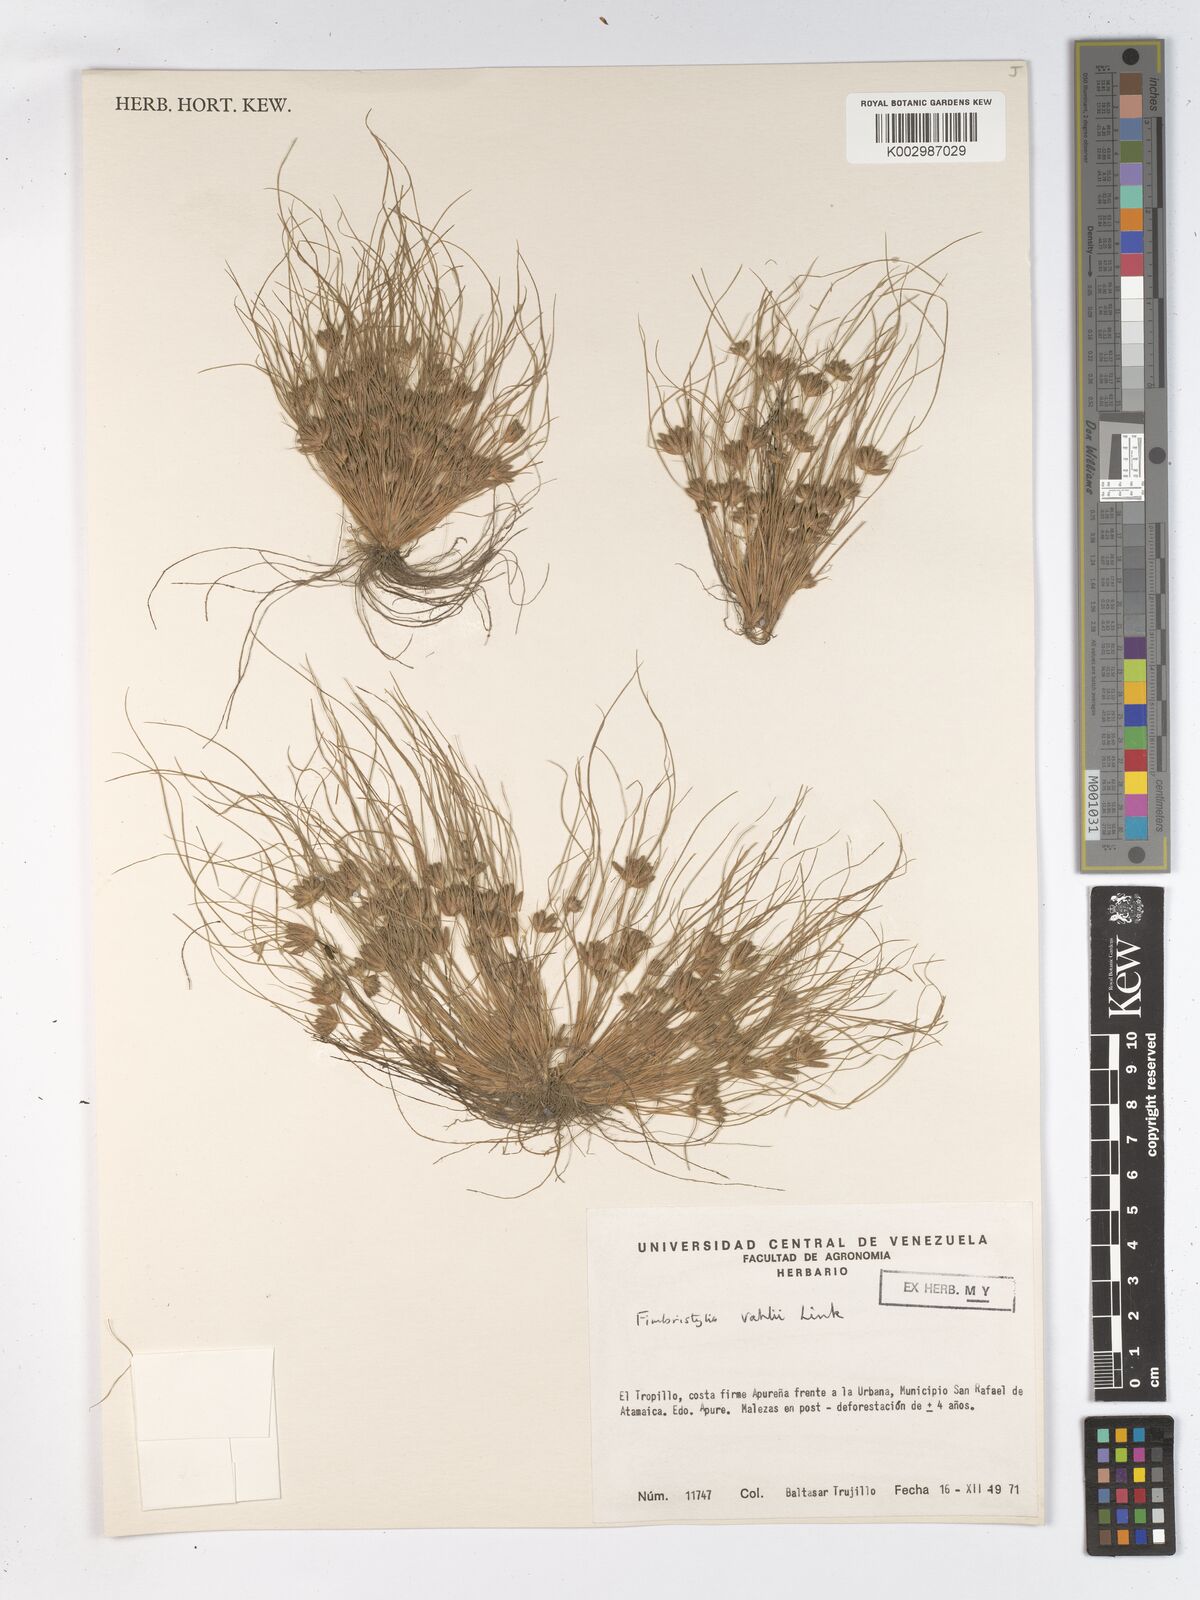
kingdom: Plantae
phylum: Tracheophyta
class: Liliopsida
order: Poales
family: Cyperaceae
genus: Fimbristylis
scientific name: Fimbristylis vahlii
